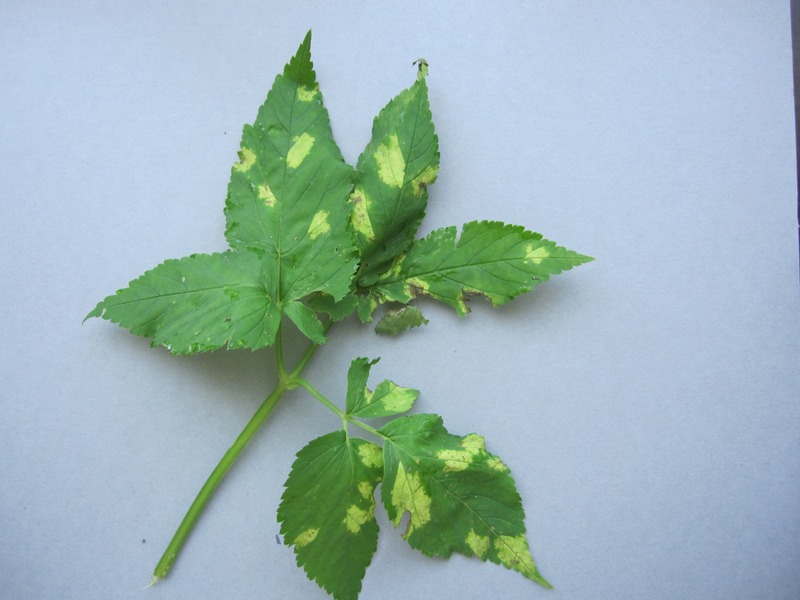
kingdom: Chromista
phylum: Oomycota
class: Peronosporea
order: Peronosporales
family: Peronosporaceae
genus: Peronospora
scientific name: Peronospora crustosa
